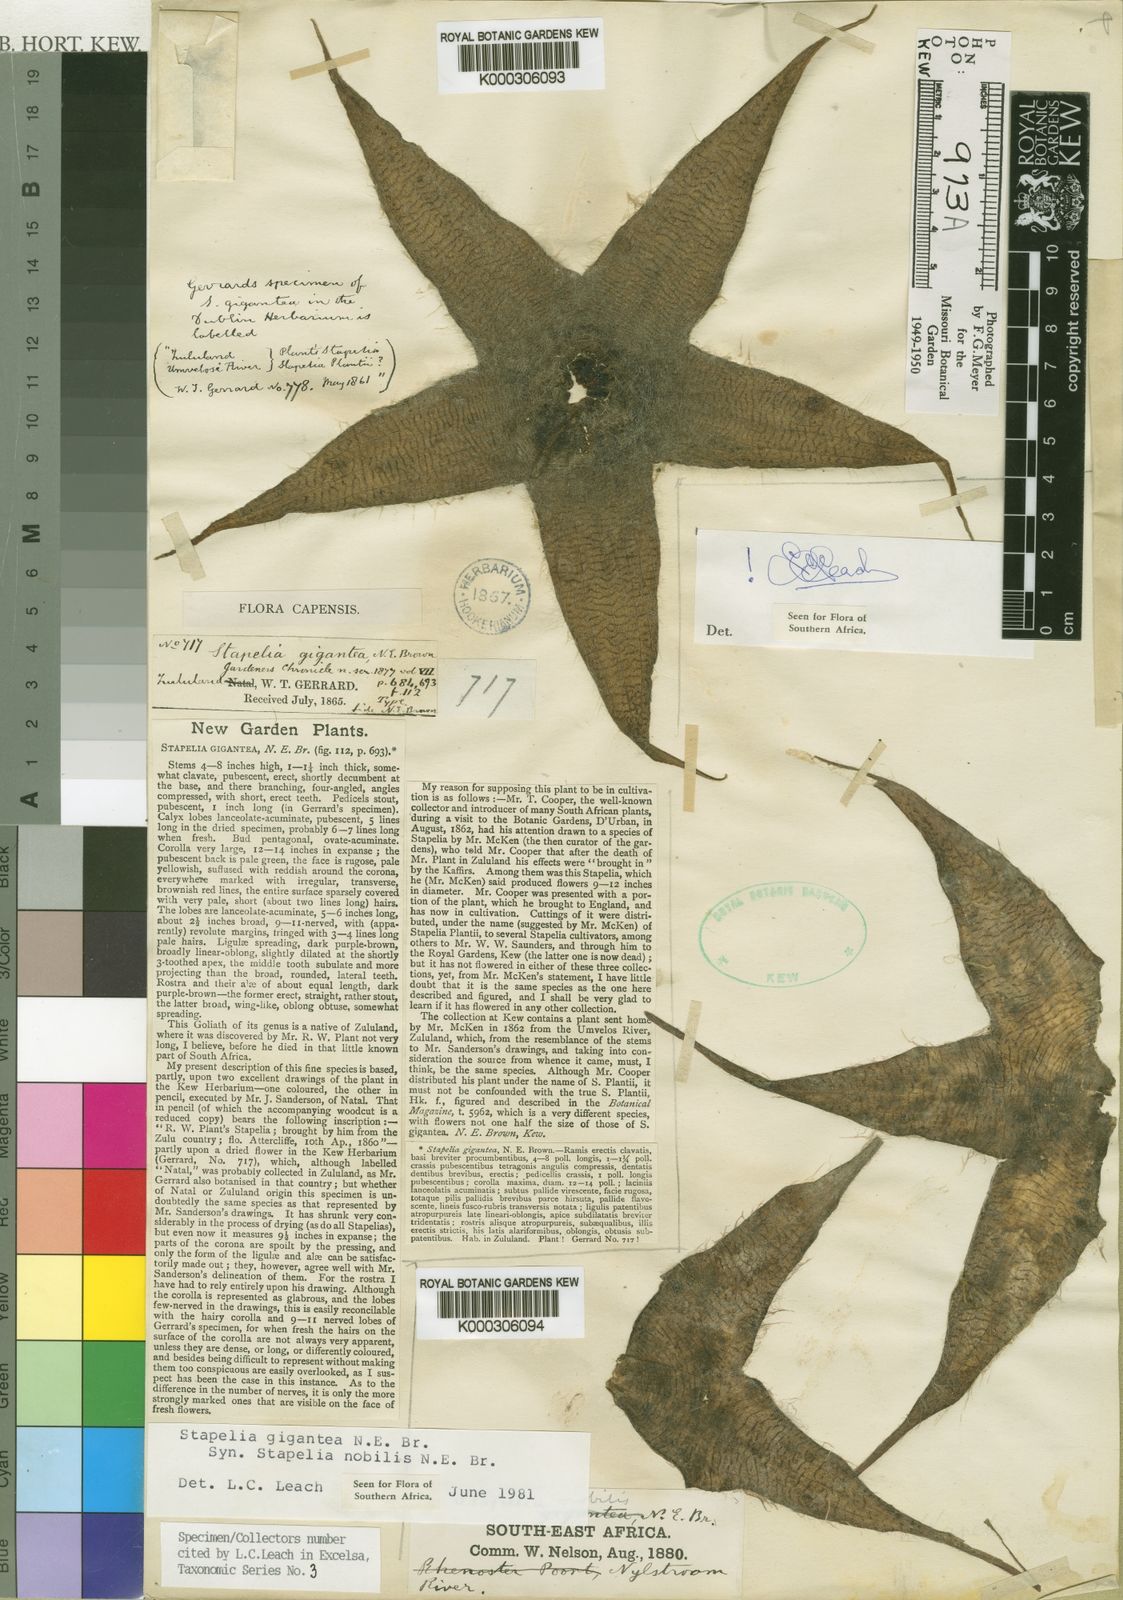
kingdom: Plantae
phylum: Tracheophyta
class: Magnoliopsida
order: Gentianales
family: Apocynaceae
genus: Ceropegia
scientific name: Ceropegia gigantea
